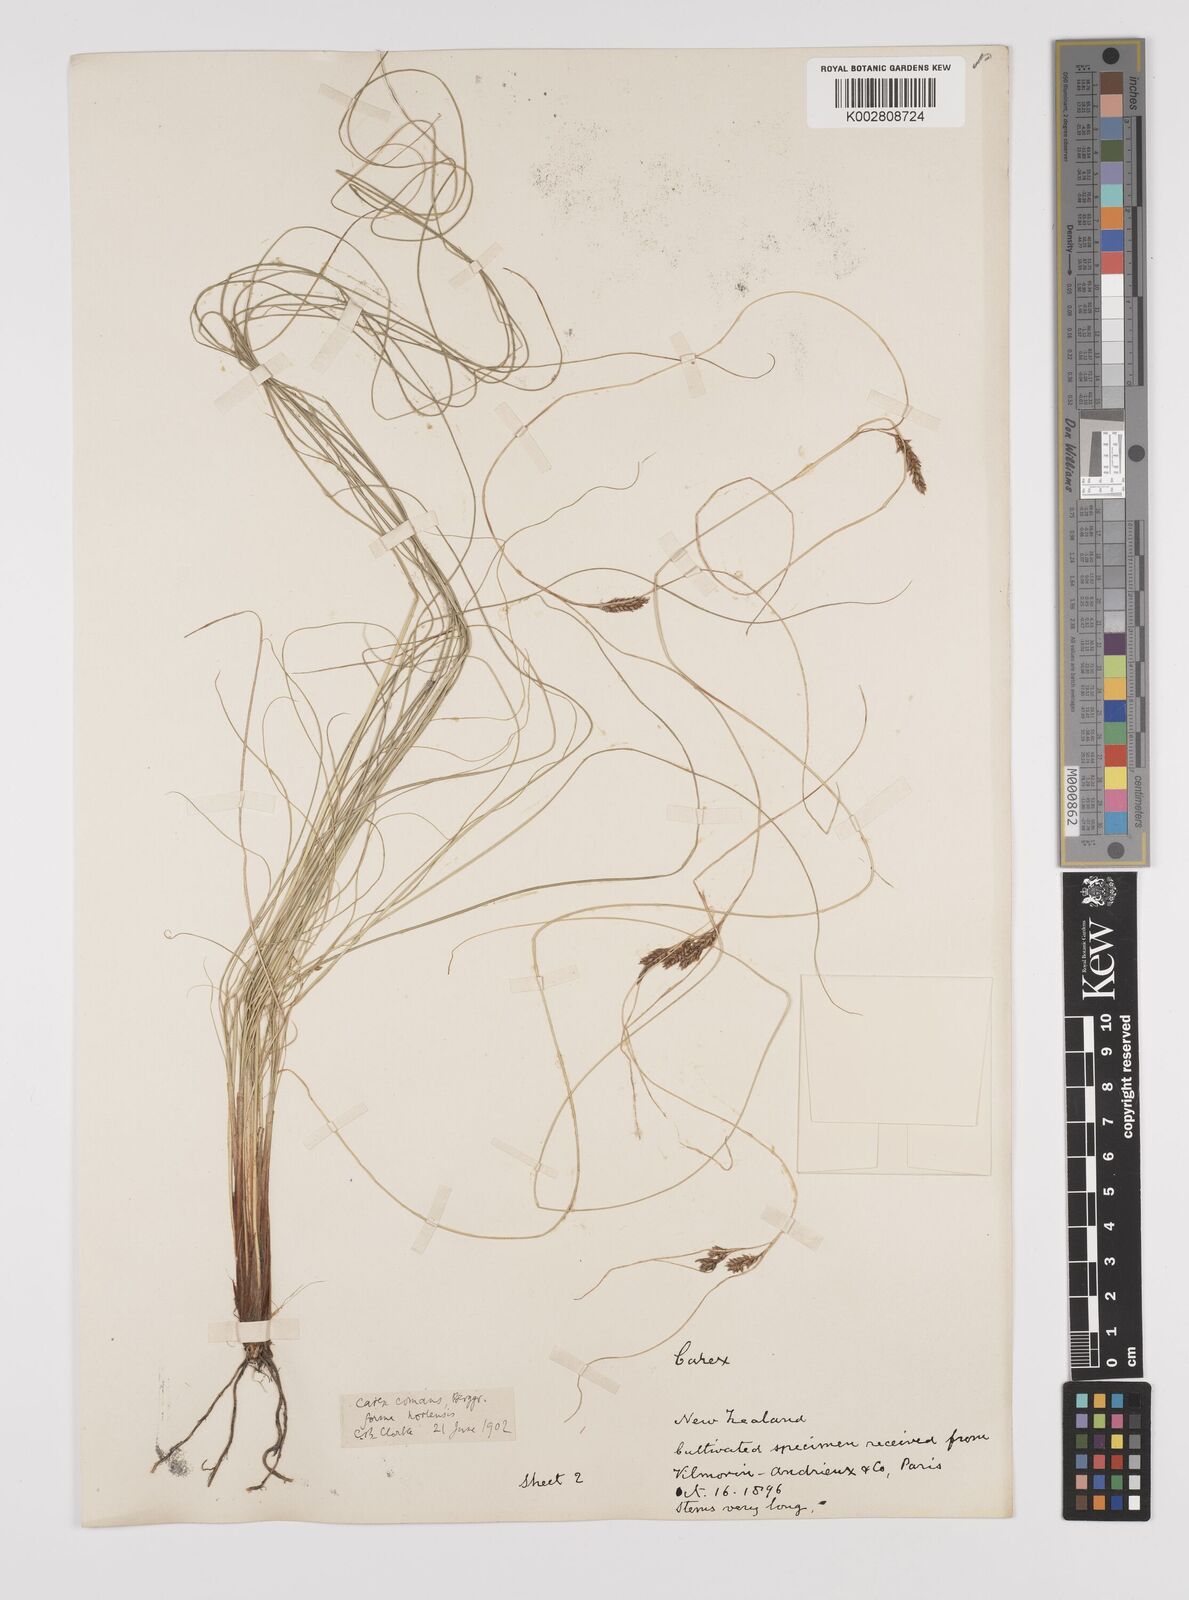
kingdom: Plantae
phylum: Tracheophyta
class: Liliopsida
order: Poales
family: Cyperaceae
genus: Carex
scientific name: Carex comans
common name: Longwood tussock
